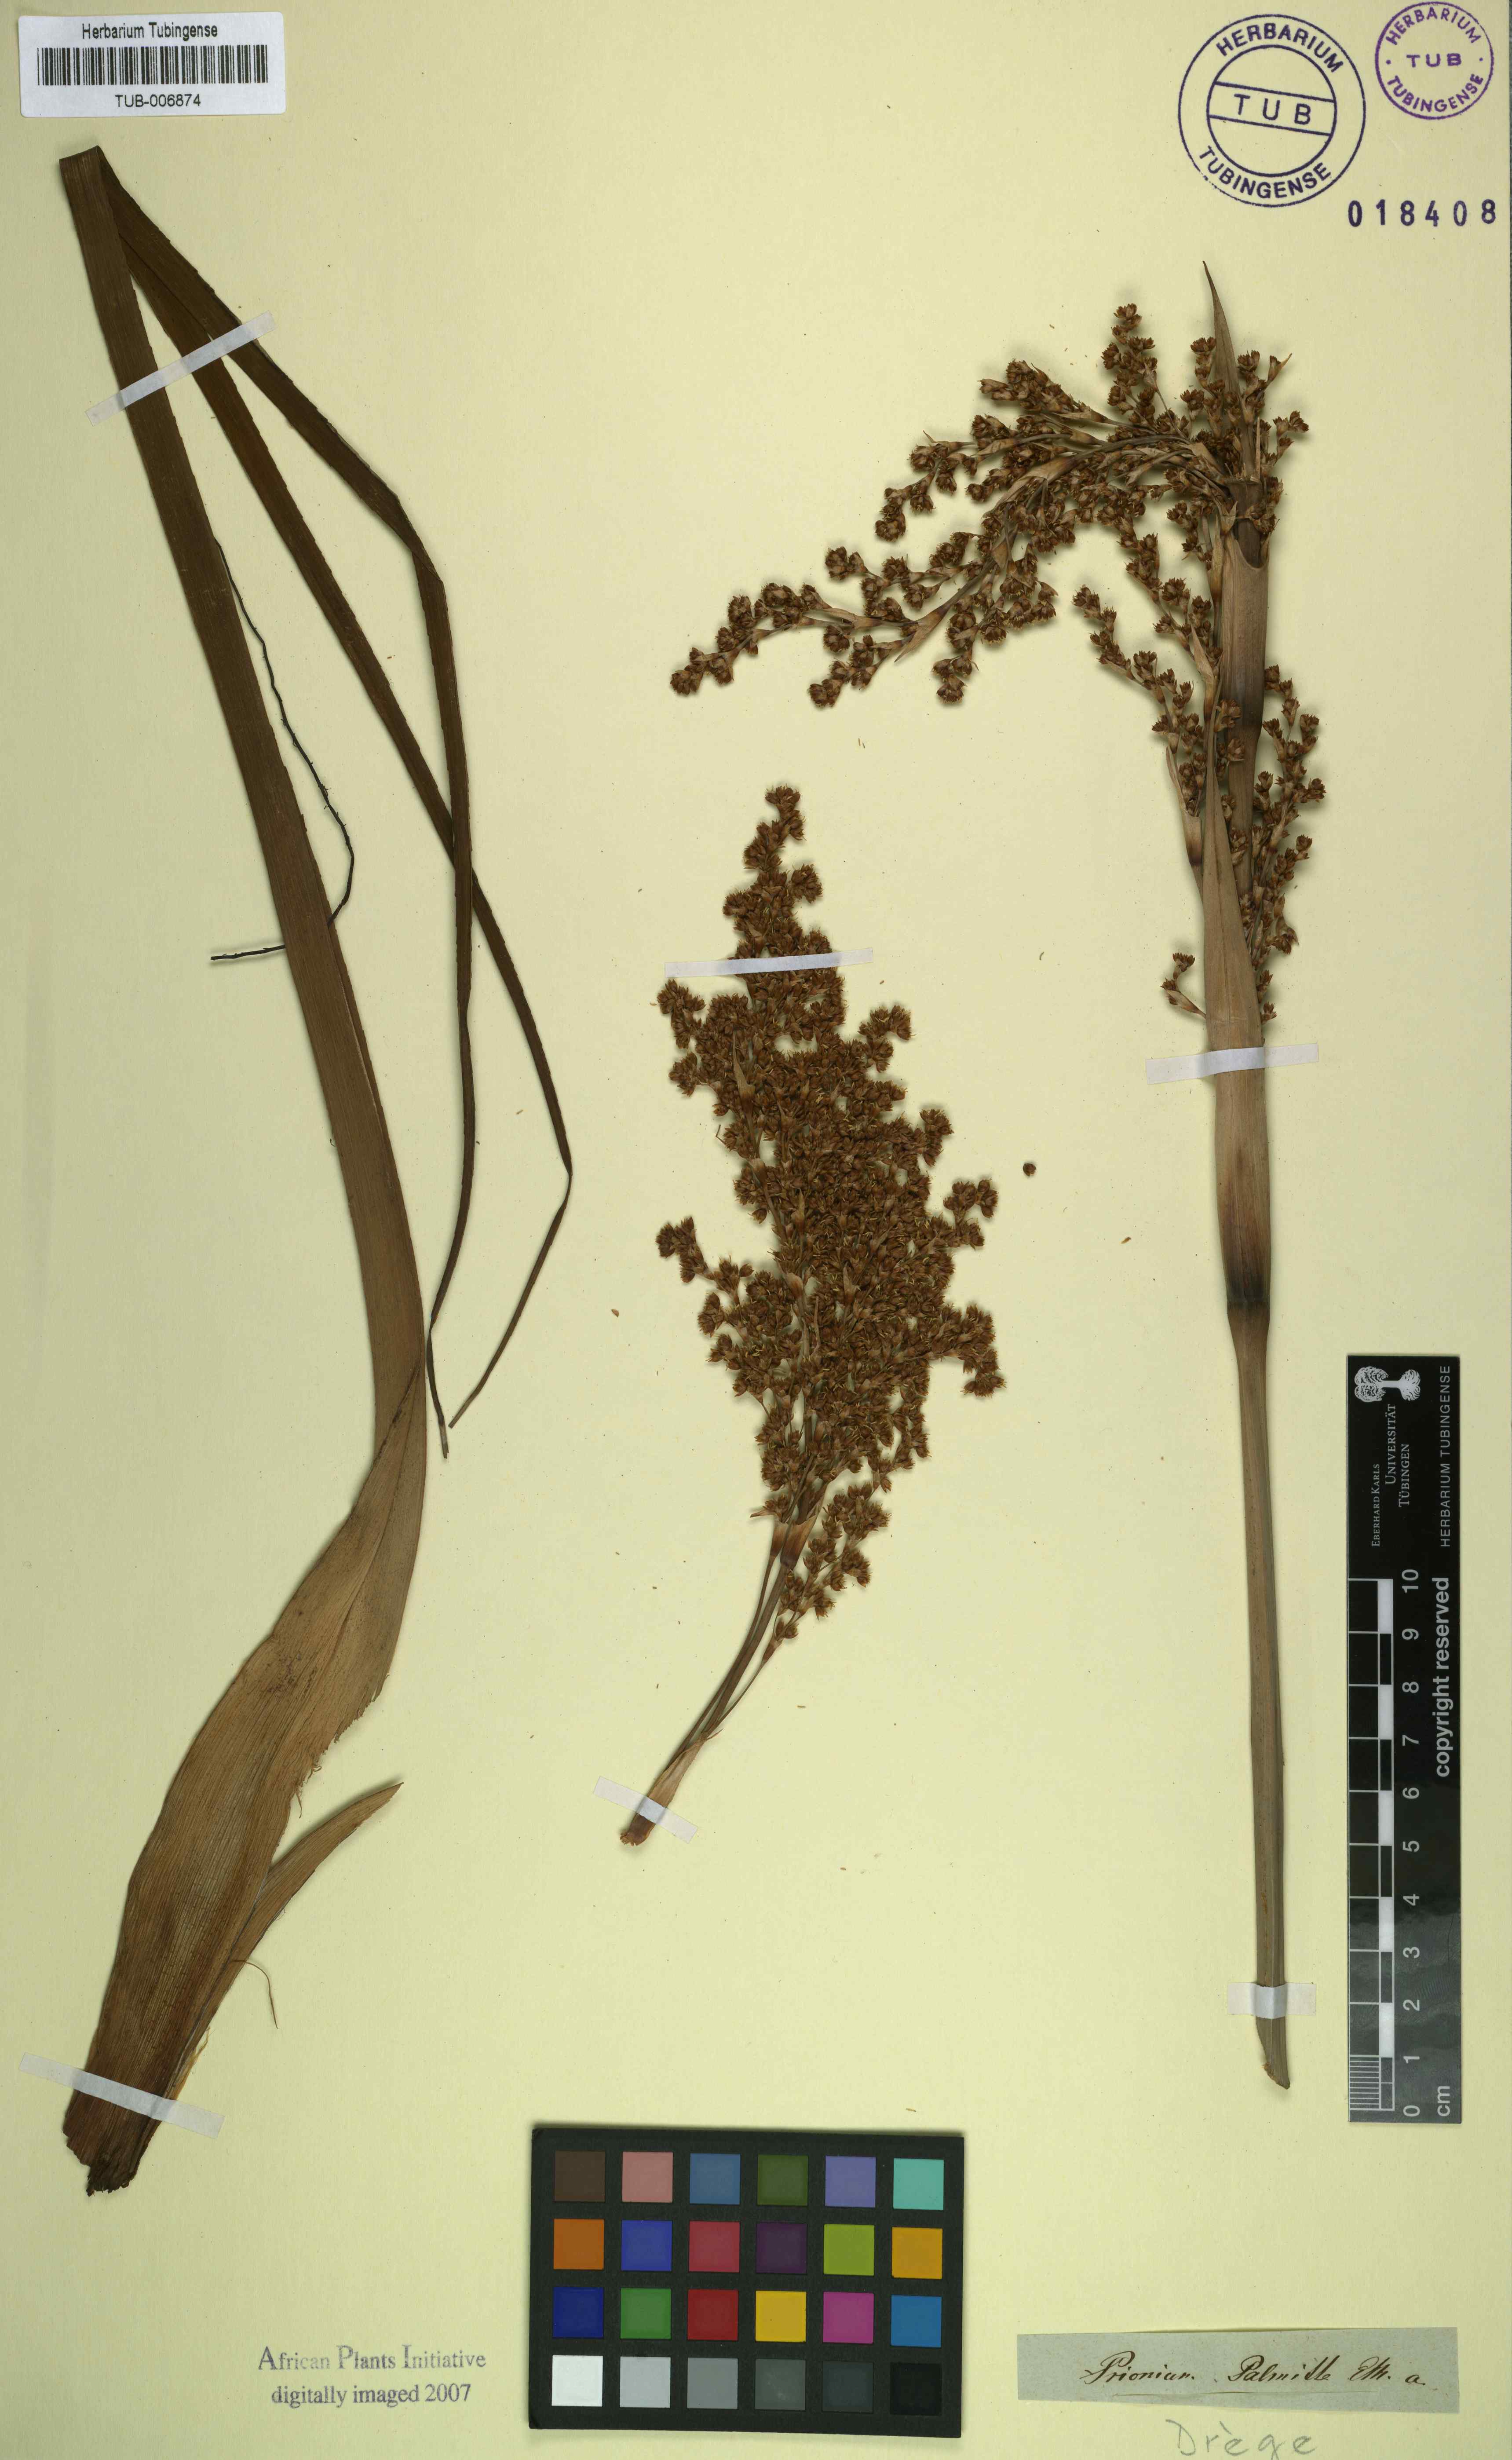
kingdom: Plantae
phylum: Tracheophyta
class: Liliopsida
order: Poales
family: Thurniaceae
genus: Prionium
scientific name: Prionium serratum
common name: Palmiet
